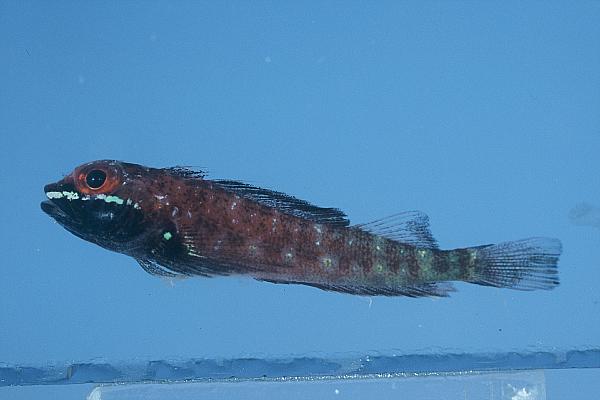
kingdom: Animalia
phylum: Chordata
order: Perciformes
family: Tripterygiidae
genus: Helcogramma
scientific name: Helcogramma fuscopinna
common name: Blackfin triplefin
